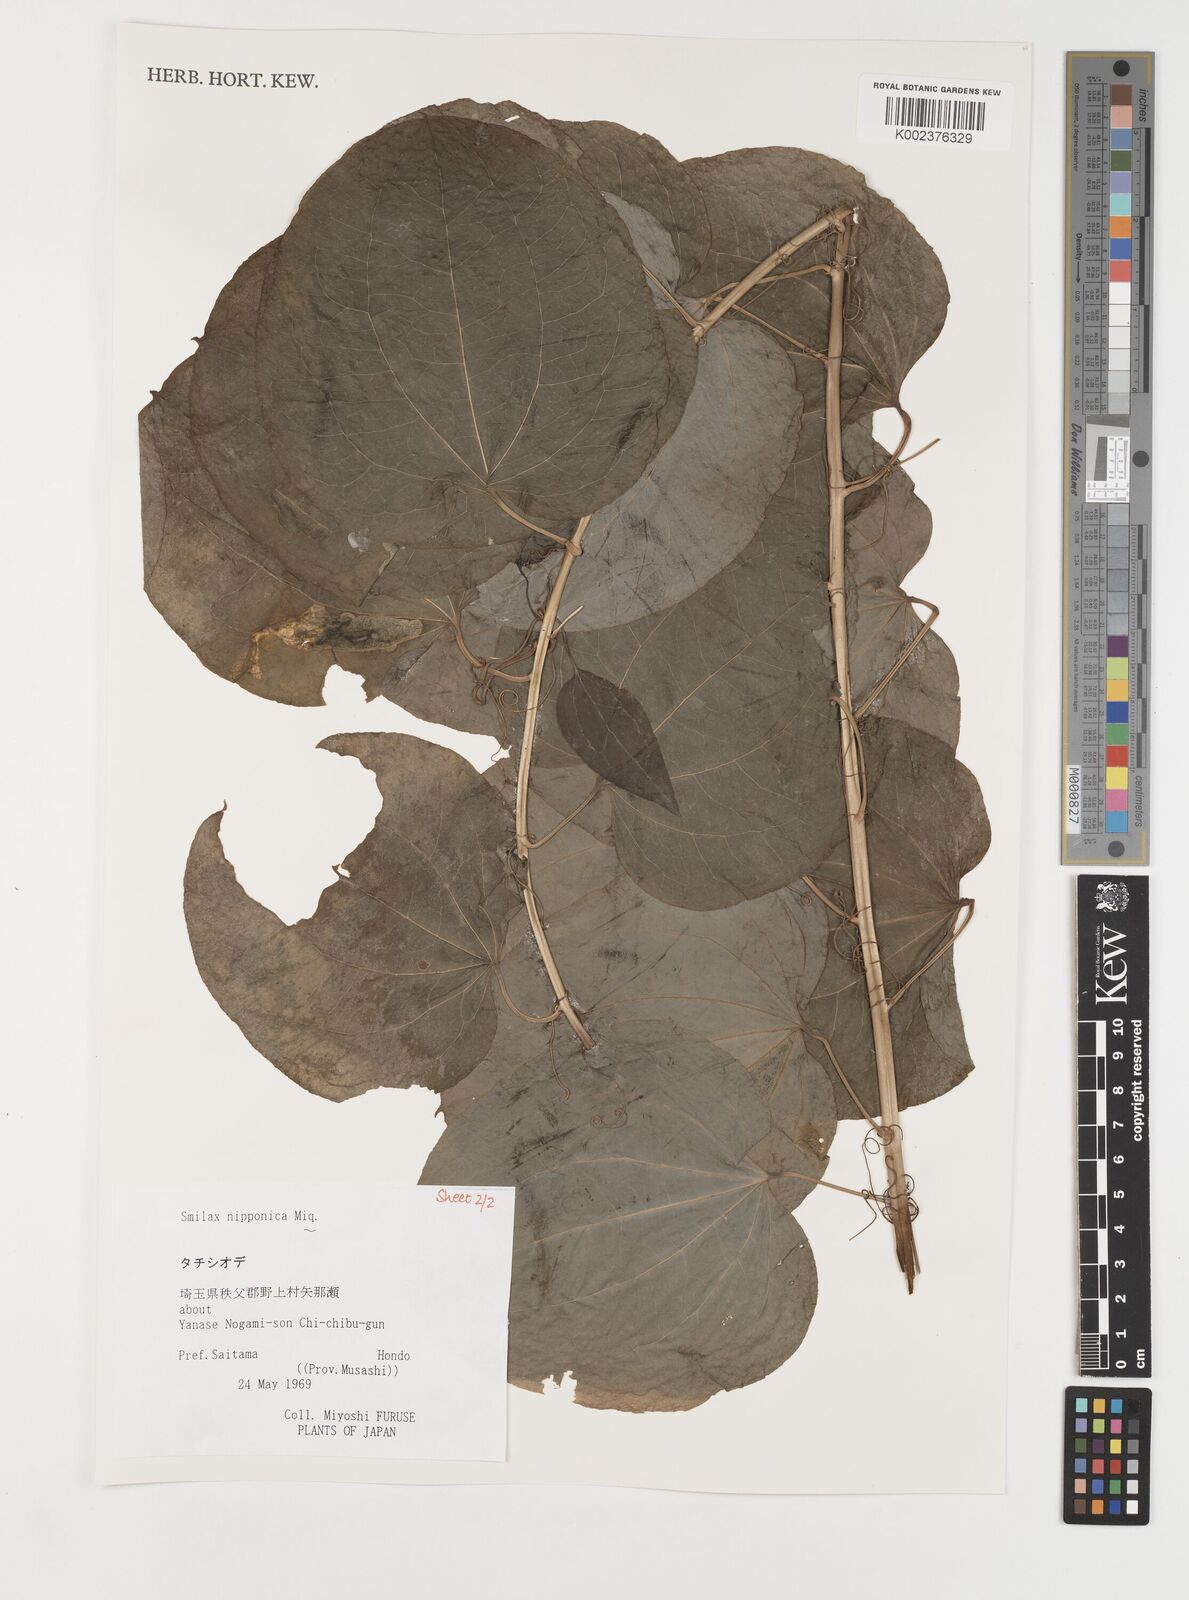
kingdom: Plantae
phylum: Tracheophyta
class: Liliopsida
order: Liliales
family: Smilacaceae
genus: Smilax
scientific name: Smilax nipponica
